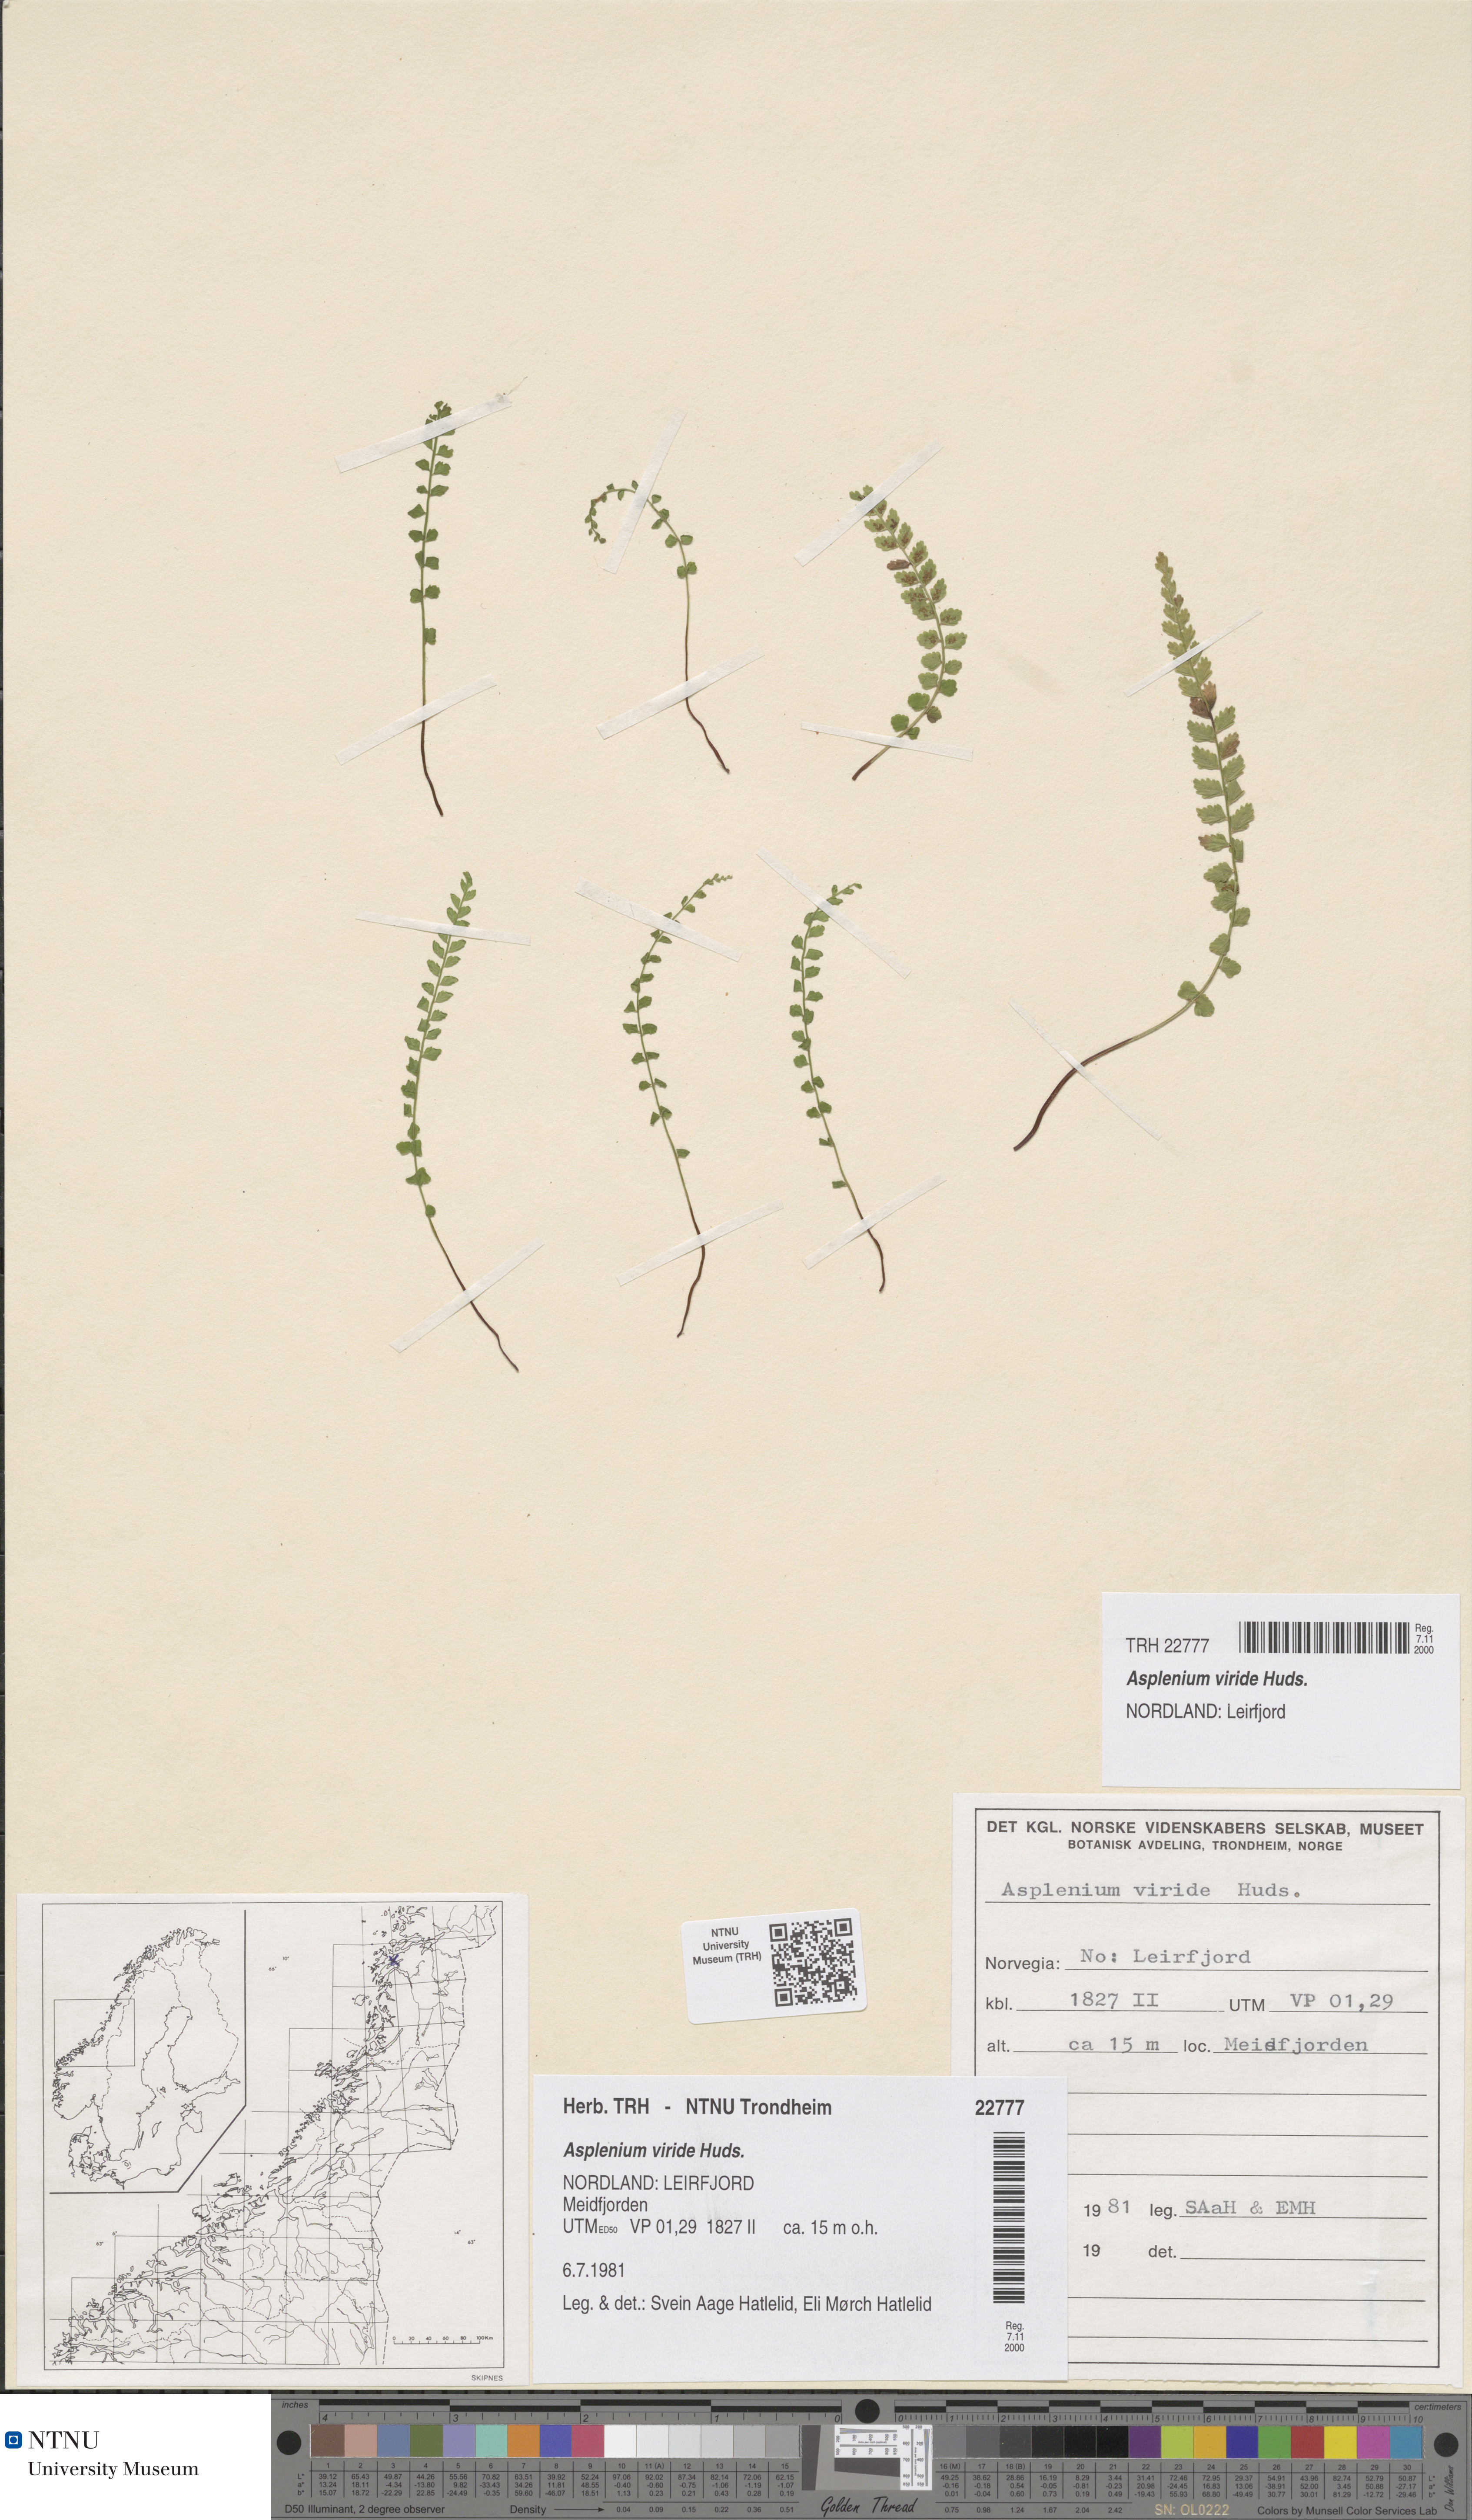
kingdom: Plantae
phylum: Tracheophyta
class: Polypodiopsida
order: Polypodiales
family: Aspleniaceae
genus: Asplenium
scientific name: Asplenium viride
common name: Green spleenwort
